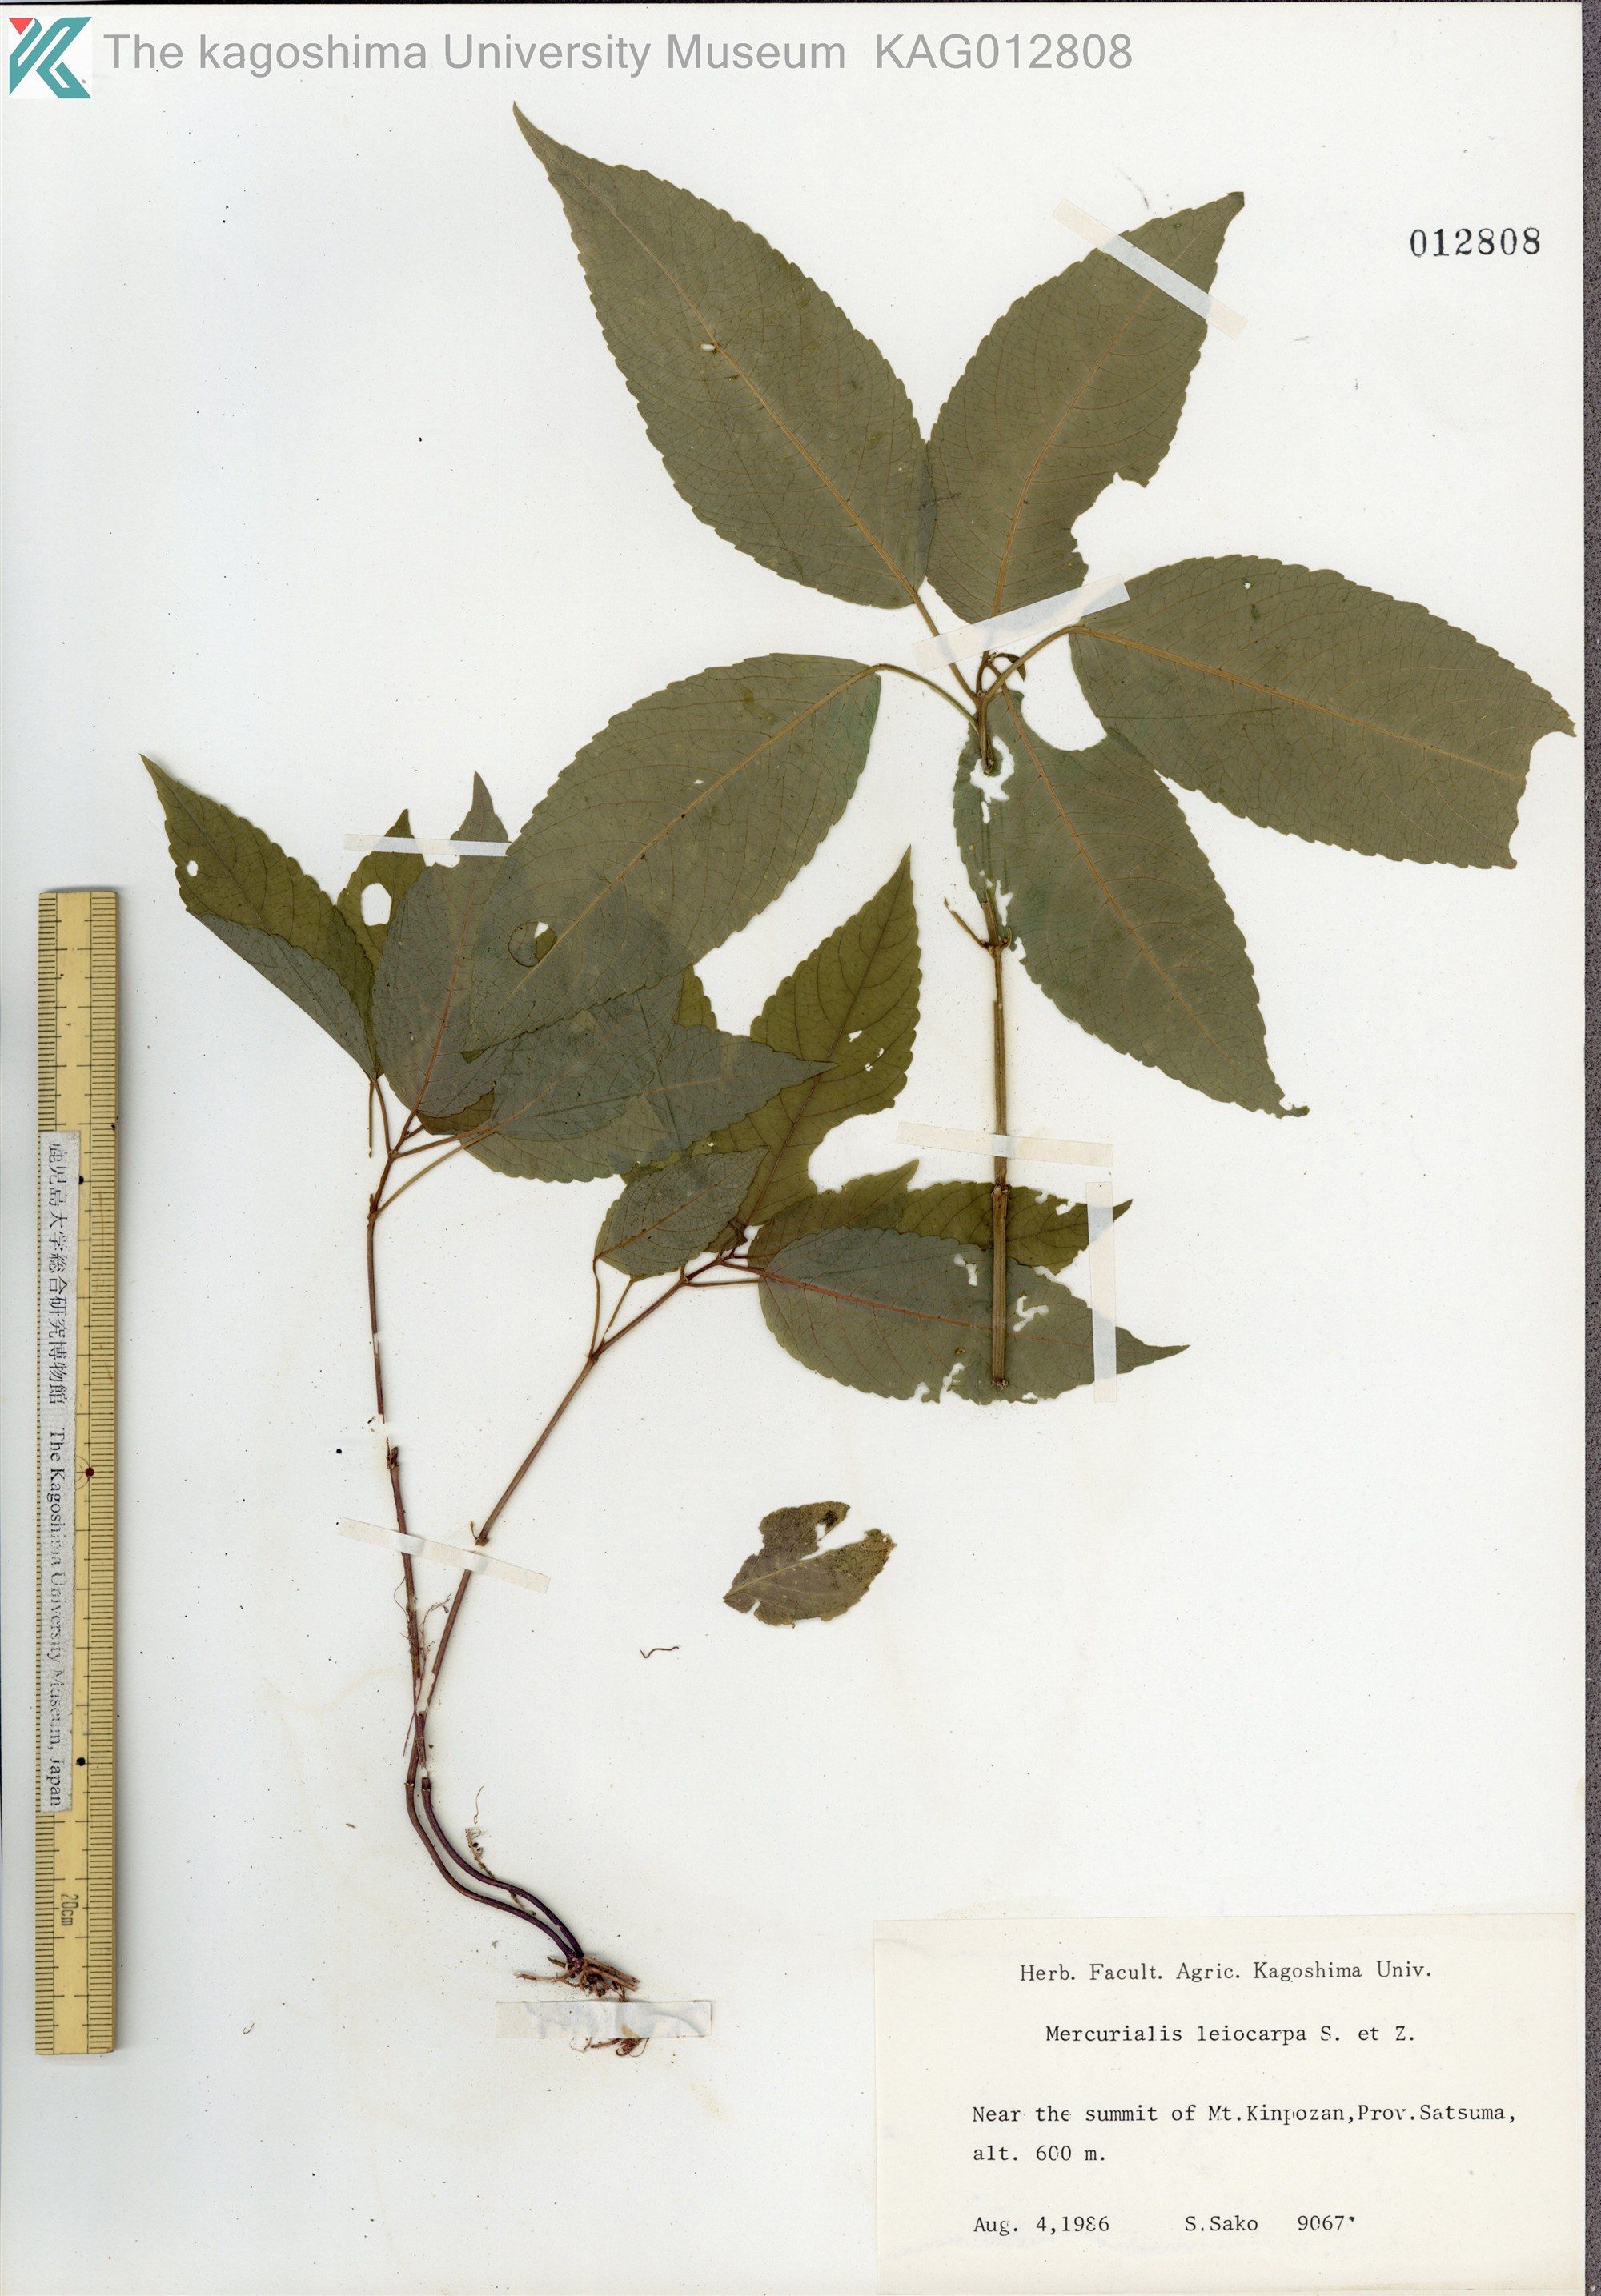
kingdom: Plantae
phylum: Tracheophyta
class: Magnoliopsida
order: Malpighiales
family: Euphorbiaceae
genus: Mercurialis
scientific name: Mercurialis leiocarpa
